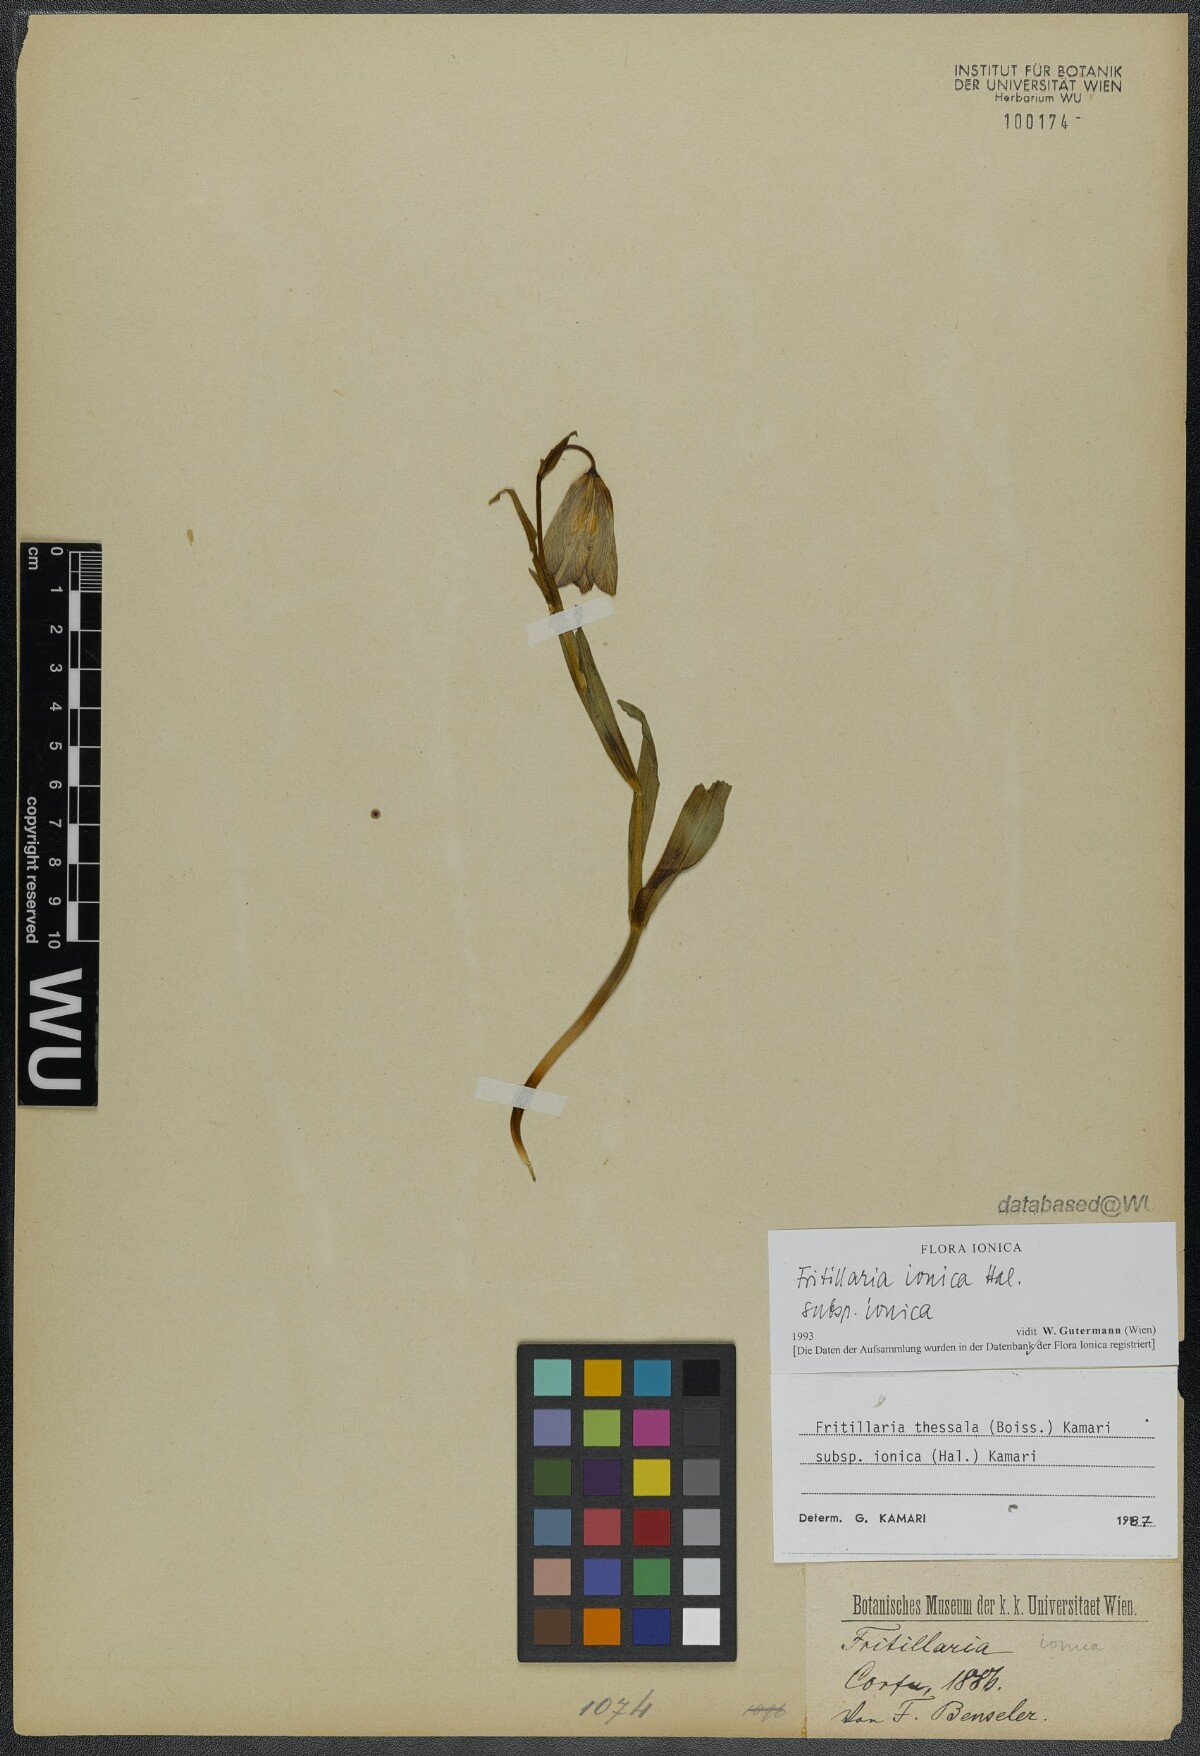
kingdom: Plantae
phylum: Tracheophyta
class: Liliopsida
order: Liliales
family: Liliaceae
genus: Fritillaria
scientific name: Fritillaria graeca
